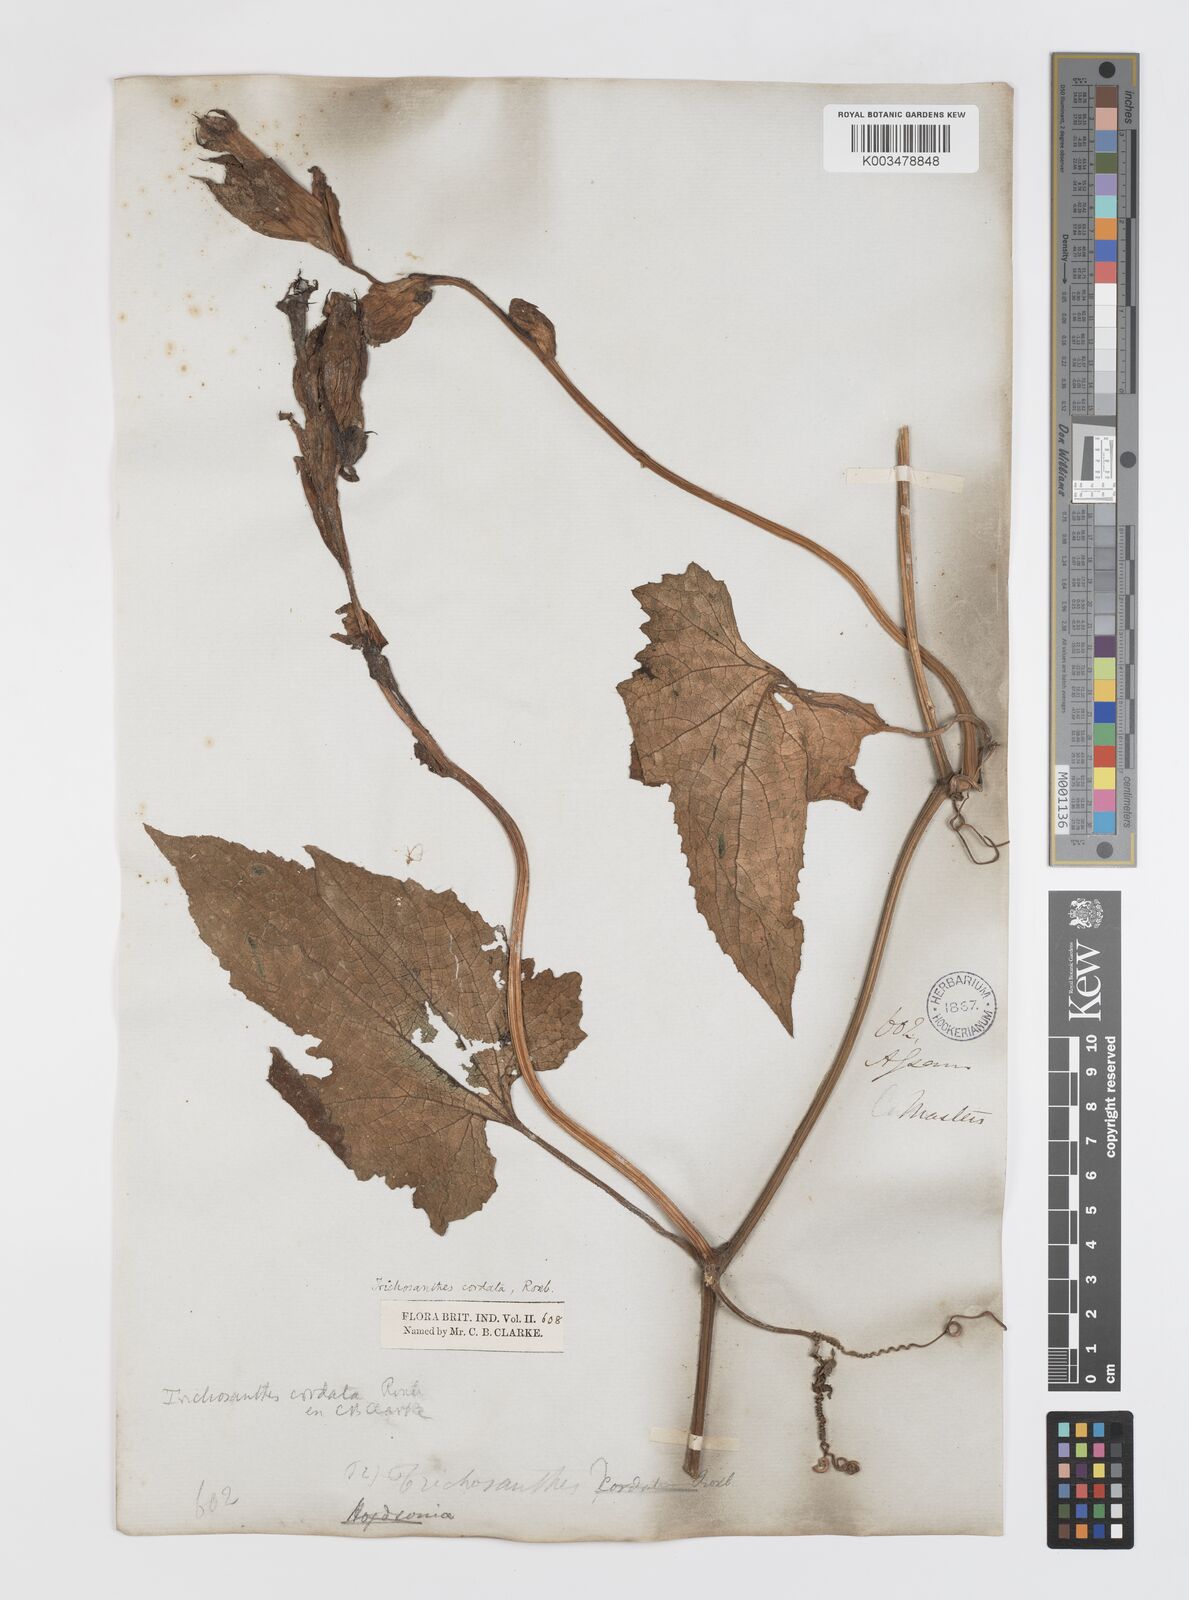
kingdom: Plantae
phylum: Tracheophyta
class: Magnoliopsida
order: Cucurbitales
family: Cucurbitaceae
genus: Trichosanthes
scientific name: Trichosanthes cordata
